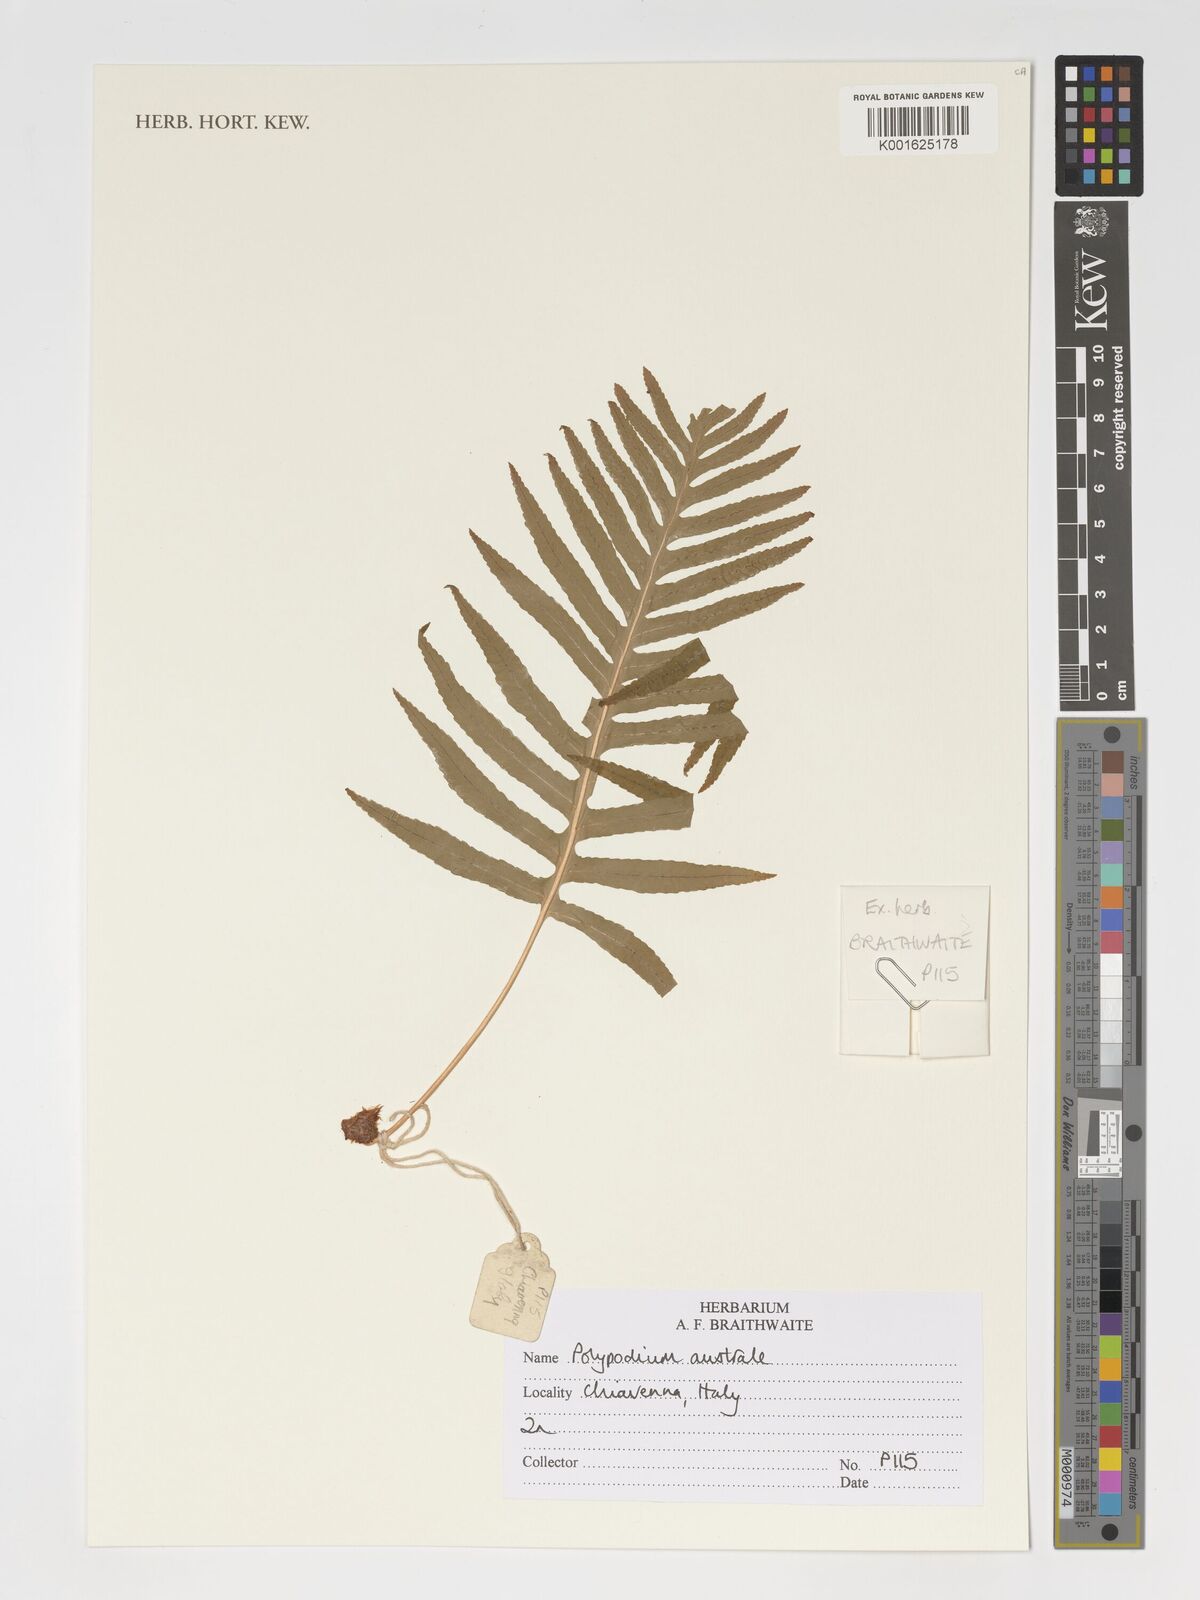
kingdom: Plantae
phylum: Tracheophyta
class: Polypodiopsida
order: Polypodiales
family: Polypodiaceae
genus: Polypodium
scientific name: Polypodium cambricum
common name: Southern polypody
